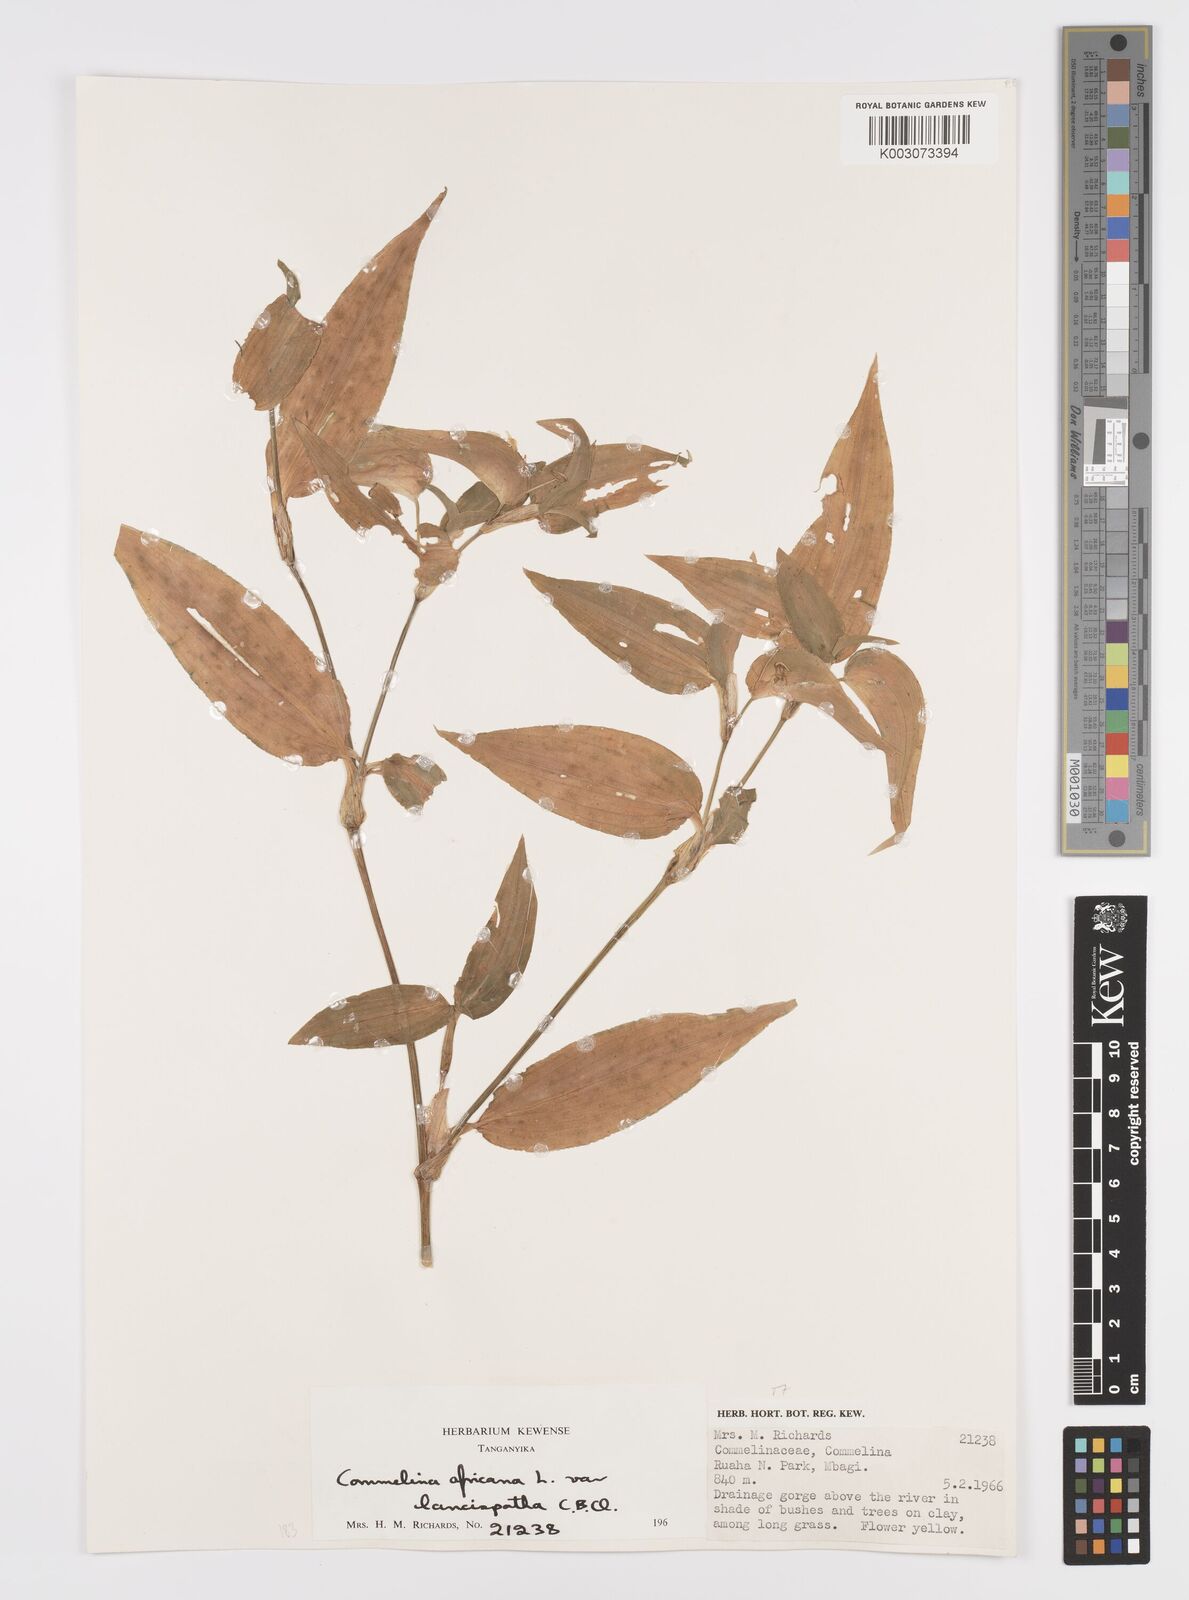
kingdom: Plantae
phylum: Tracheophyta
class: Liliopsida
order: Commelinales
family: Commelinaceae
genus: Commelina
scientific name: Commelina africana
